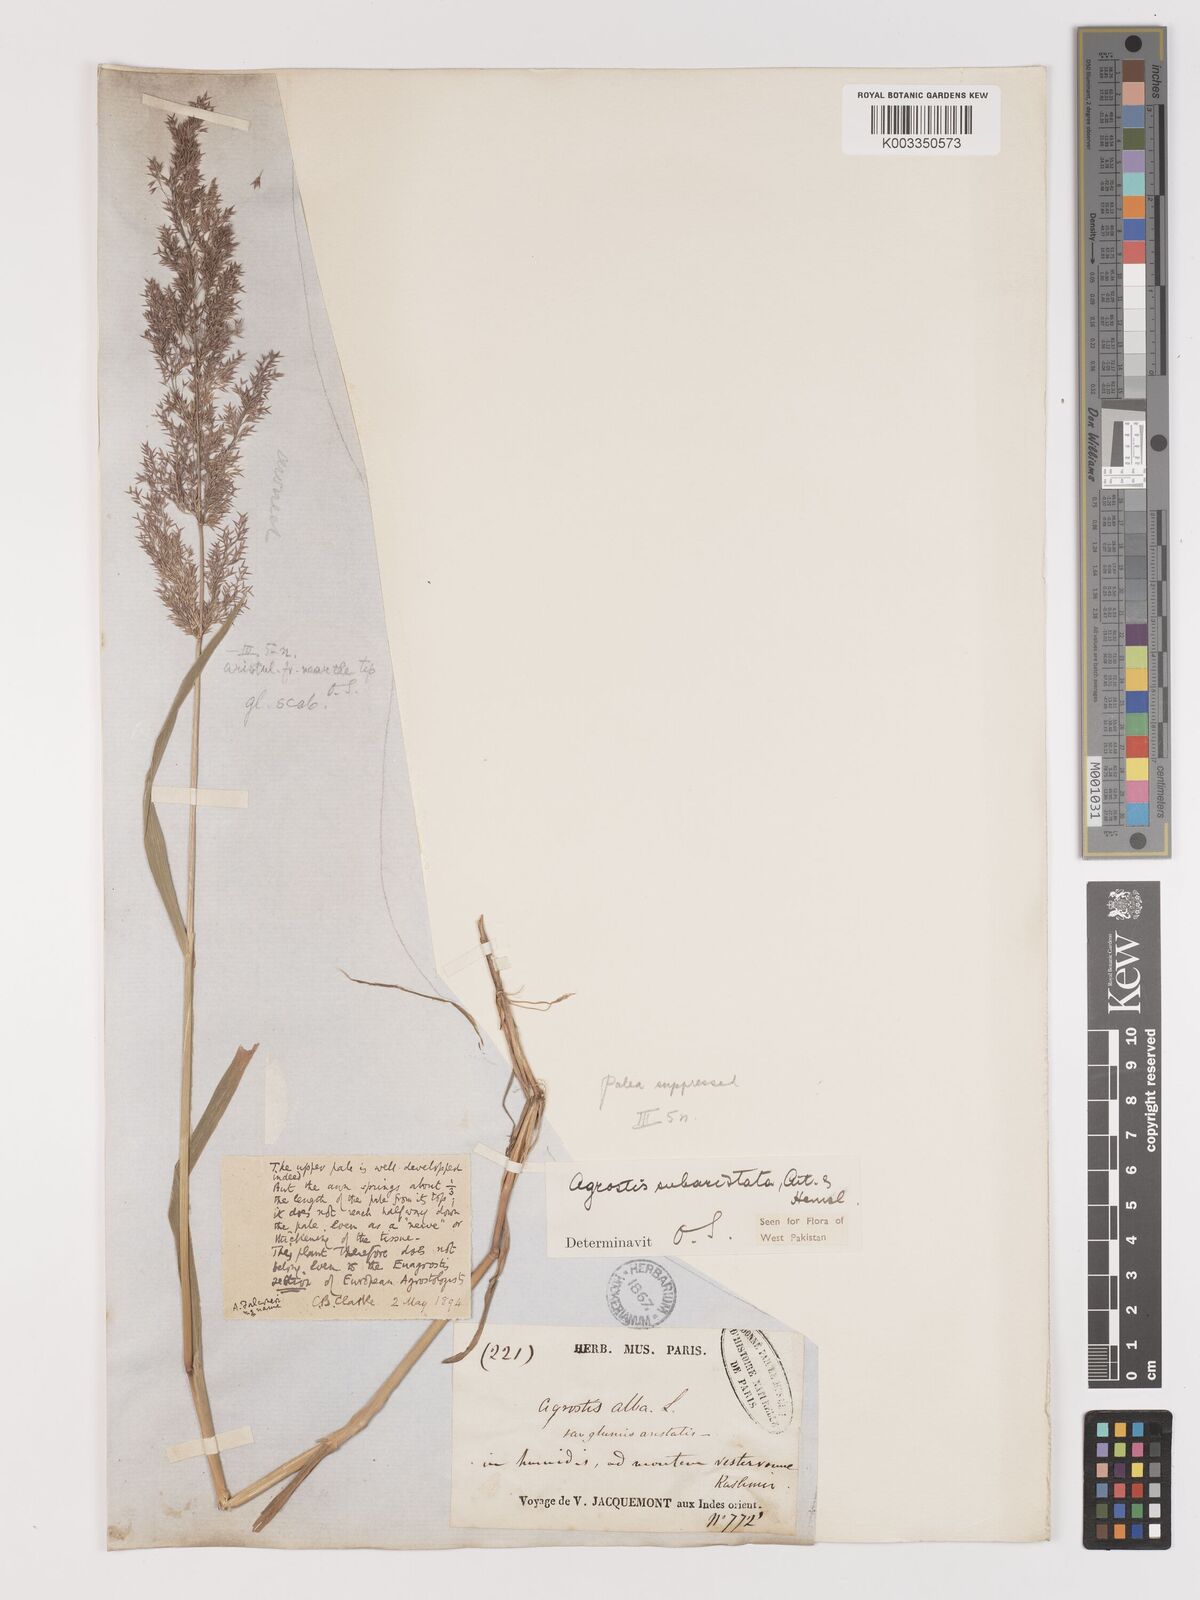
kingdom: Plantae
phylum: Tracheophyta
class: Liliopsida
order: Poales
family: Poaceae
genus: Agropogon
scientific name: Agropogon lutosus
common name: Coast agropogon
